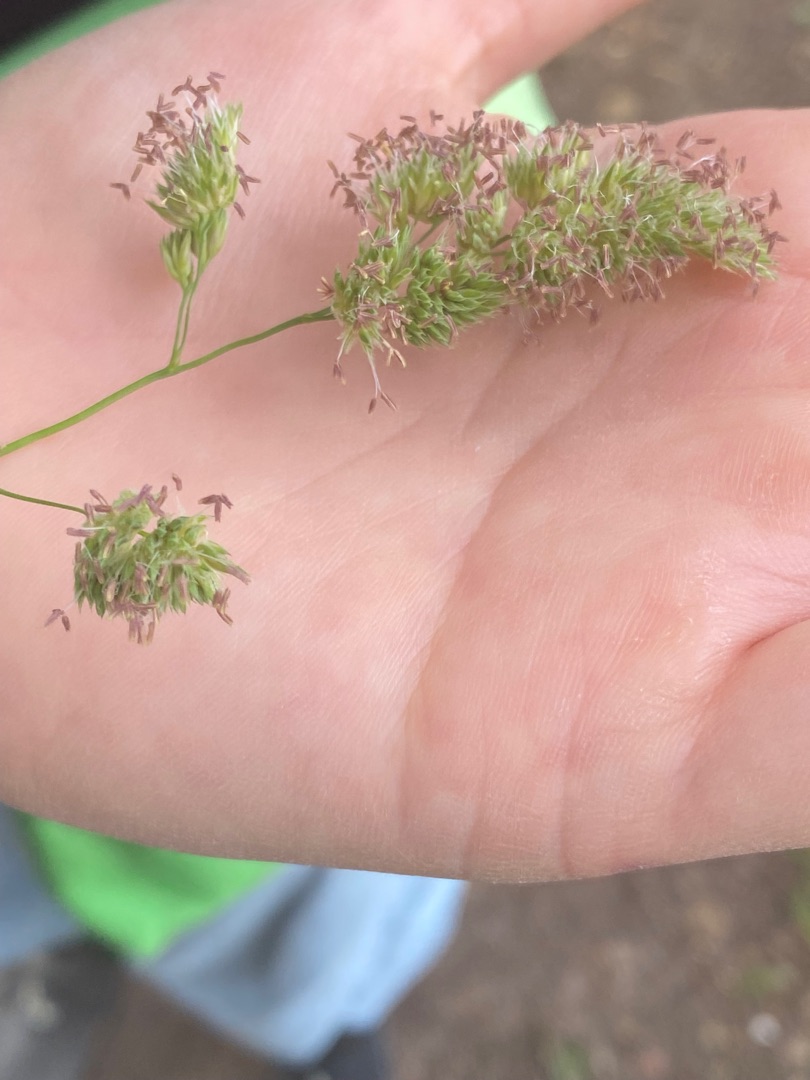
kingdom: Plantae
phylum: Tracheophyta
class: Liliopsida
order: Poales
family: Poaceae
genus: Dactylis
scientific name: Dactylis
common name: Hundegræsslægten
